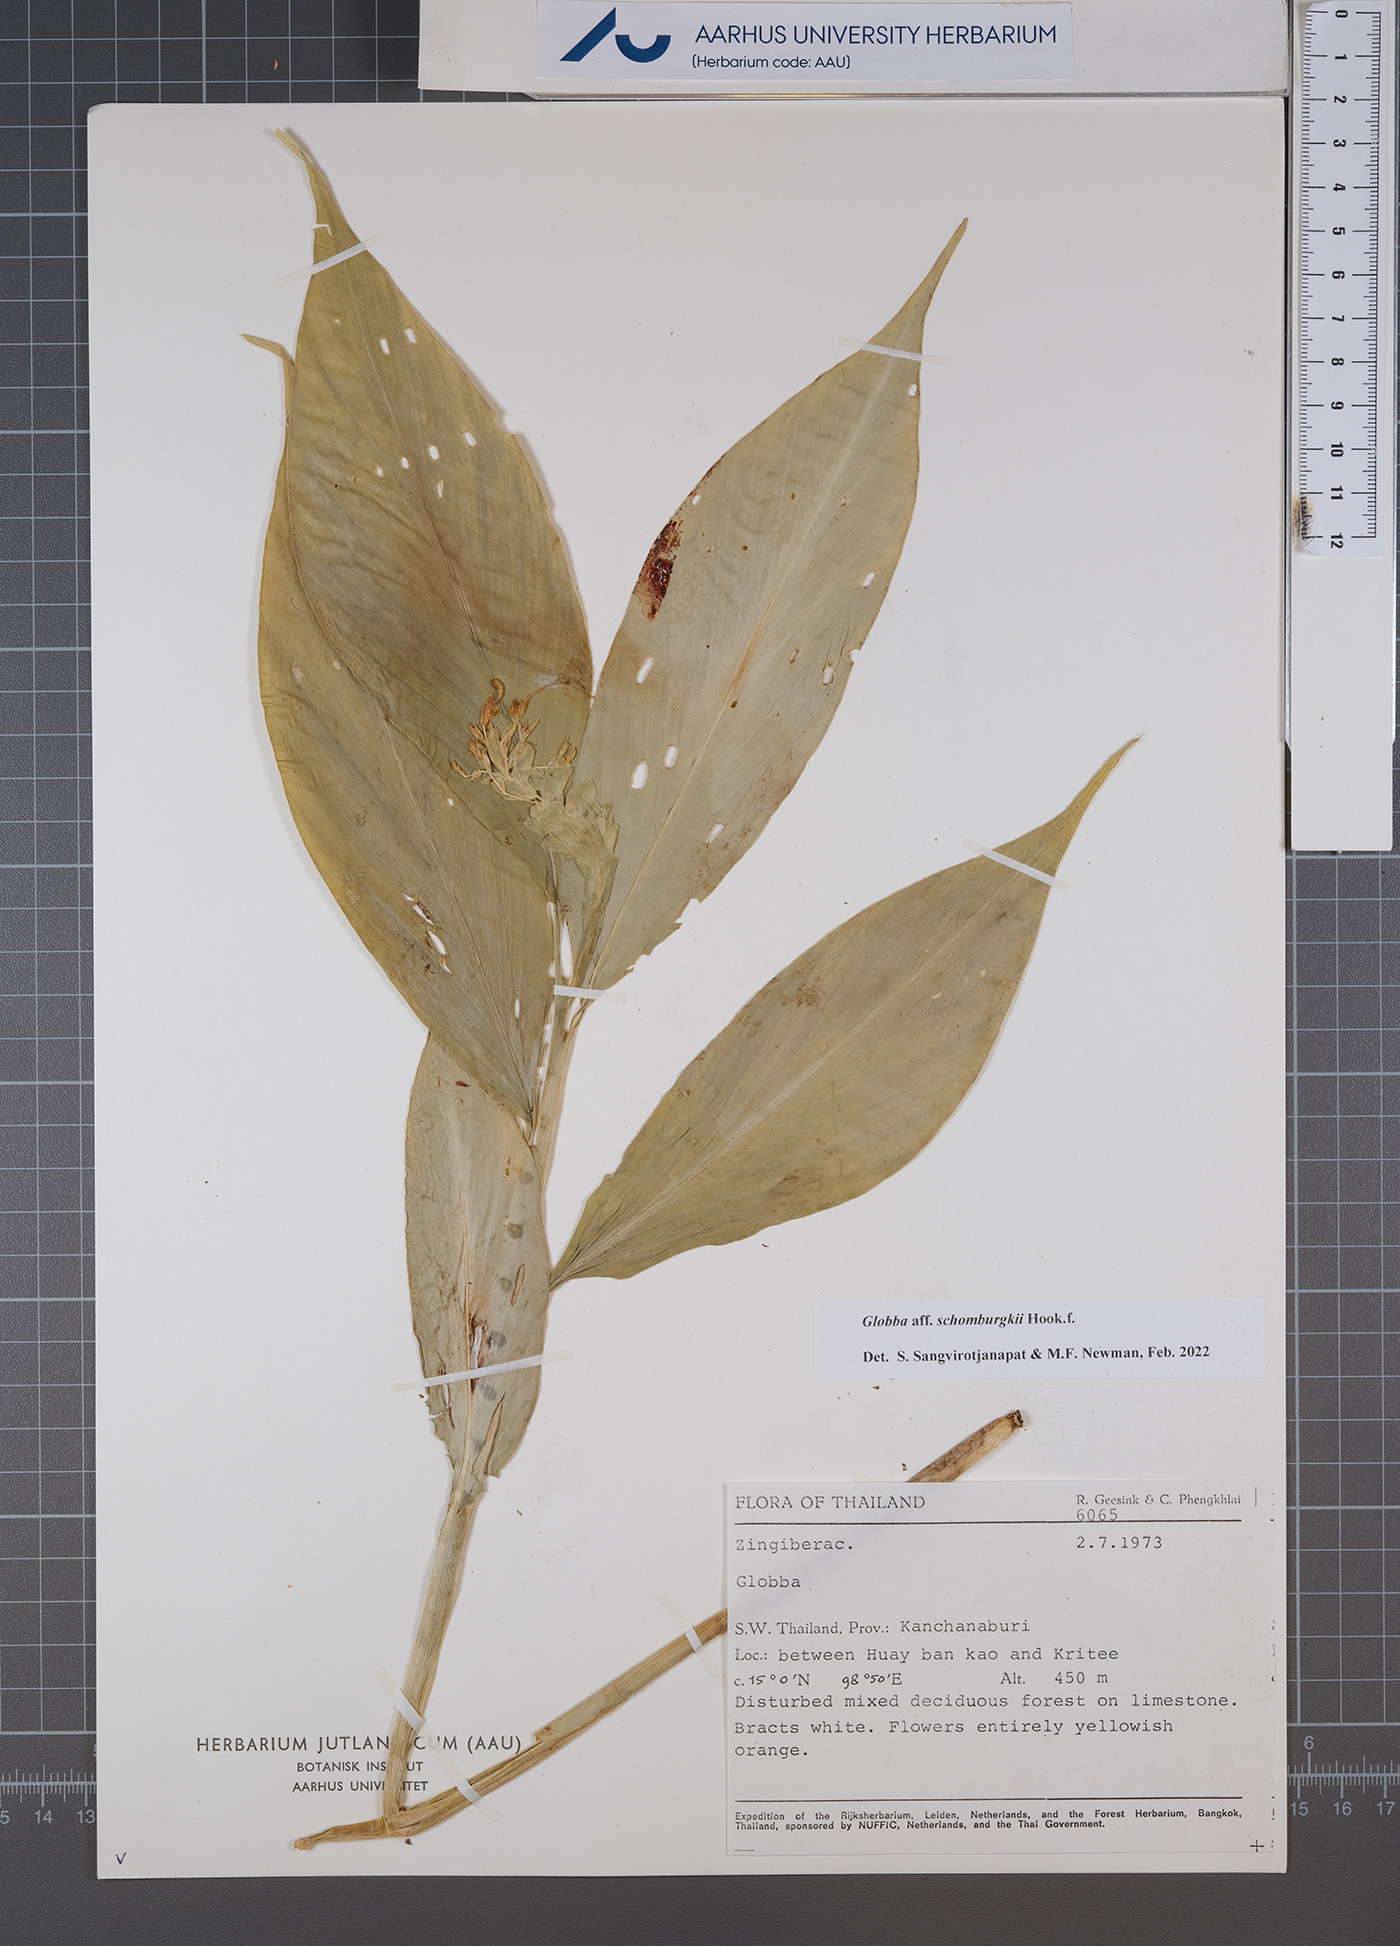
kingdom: Plantae
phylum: Tracheophyta
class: Liliopsida
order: Zingiberales
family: Zingiberaceae
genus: Globba
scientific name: Globba schomburgkii
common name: Dancing girl ginger
